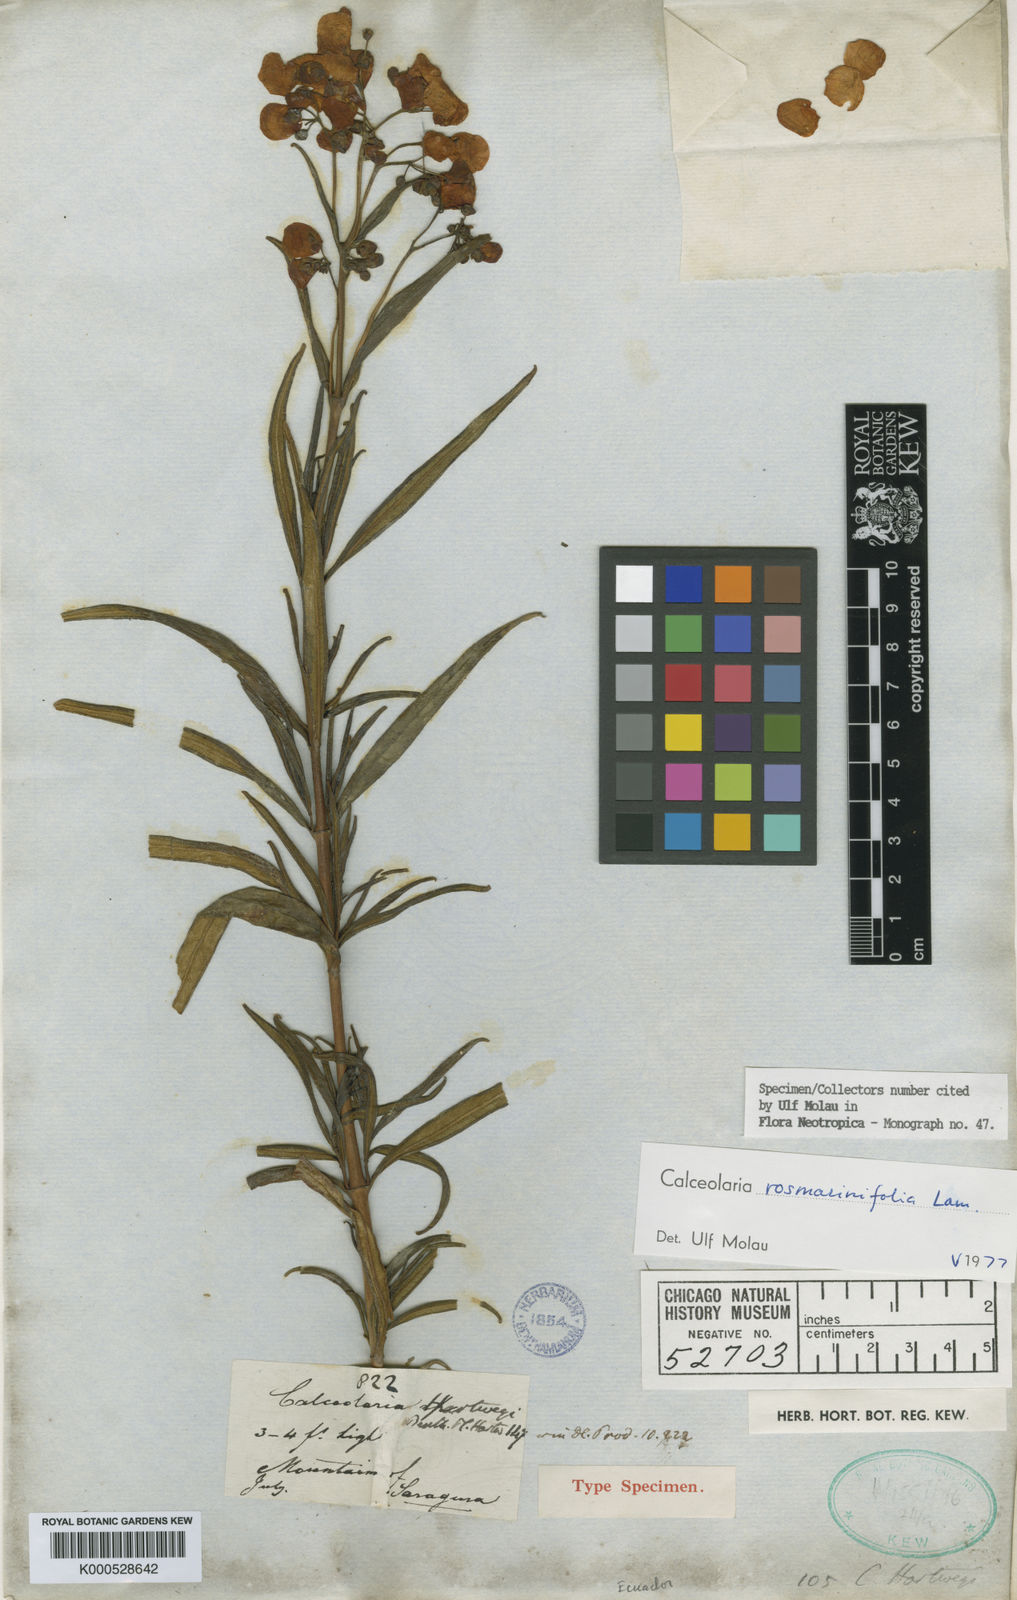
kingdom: Plantae
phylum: Tracheophyta
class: Magnoliopsida
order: Lamiales
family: Calceolariaceae
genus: Calceolaria
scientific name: Calceolaria rosmarinifolia
